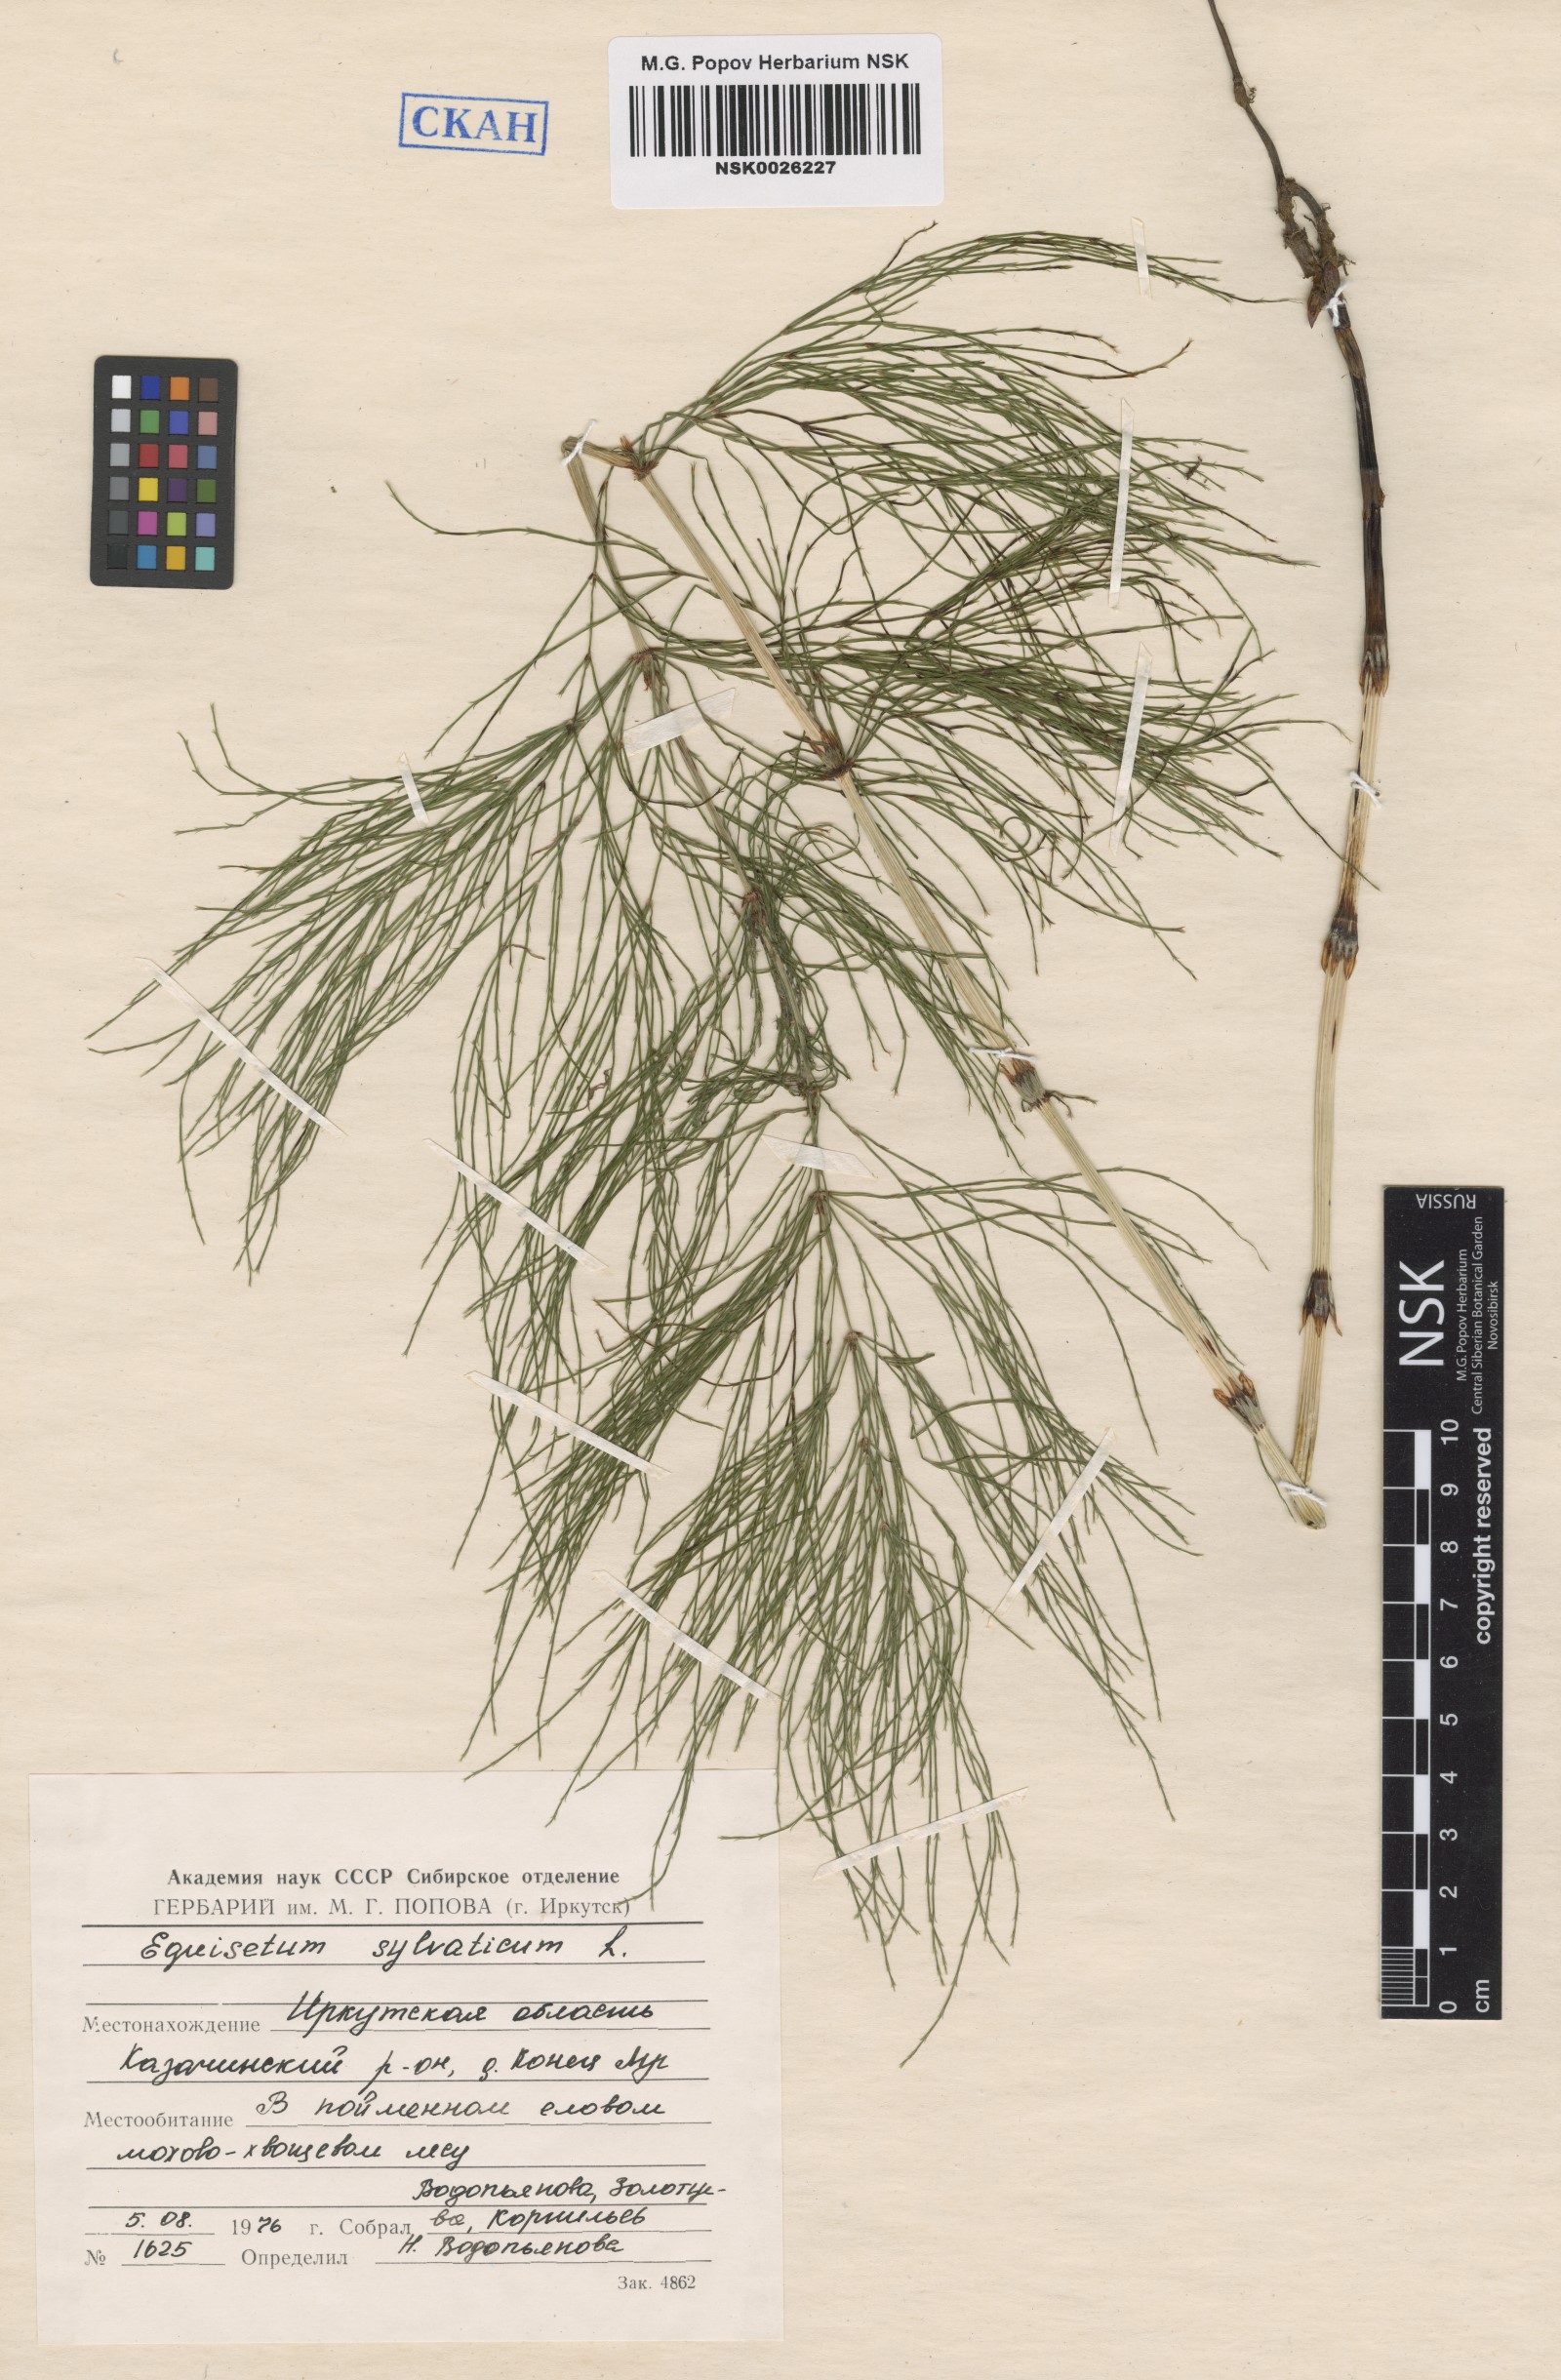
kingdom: Plantae
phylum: Tracheophyta
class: Polypodiopsida
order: Equisetales
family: Equisetaceae
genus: Equisetum
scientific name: Equisetum sylvaticum
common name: Wood horsetail
